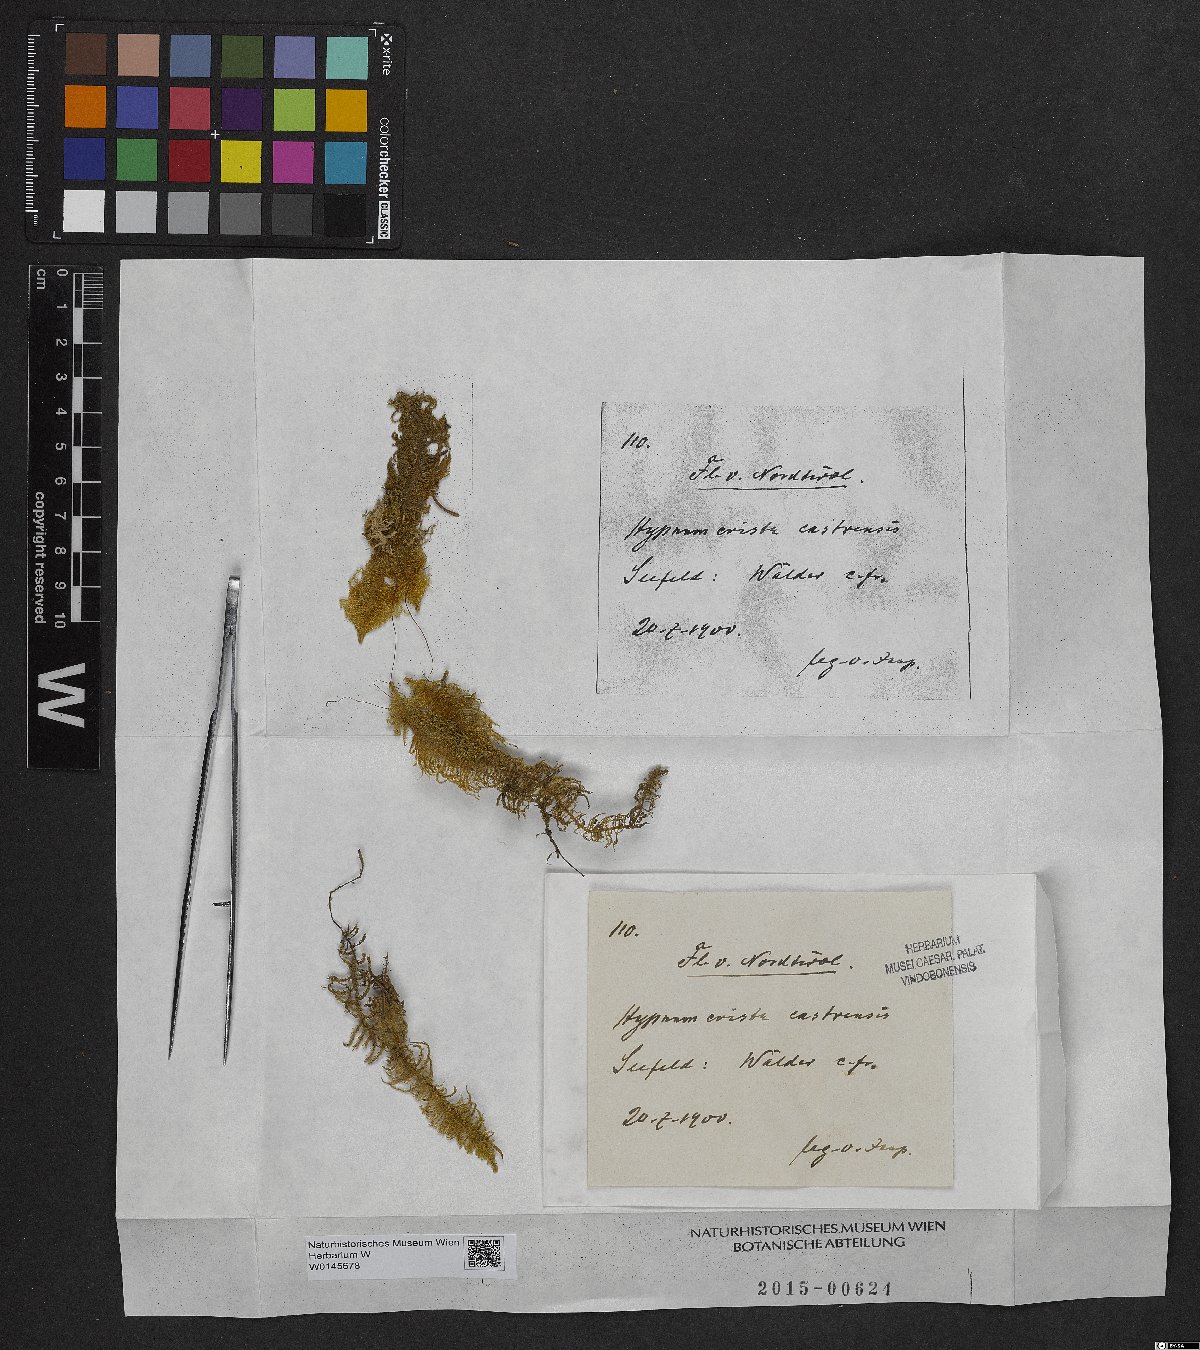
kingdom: Plantae
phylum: Bryophyta
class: Bryopsida
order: Hypnales
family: Pylaisiaceae
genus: Ptilium
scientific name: Ptilium crista-castrensis
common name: Knight's plume moss
